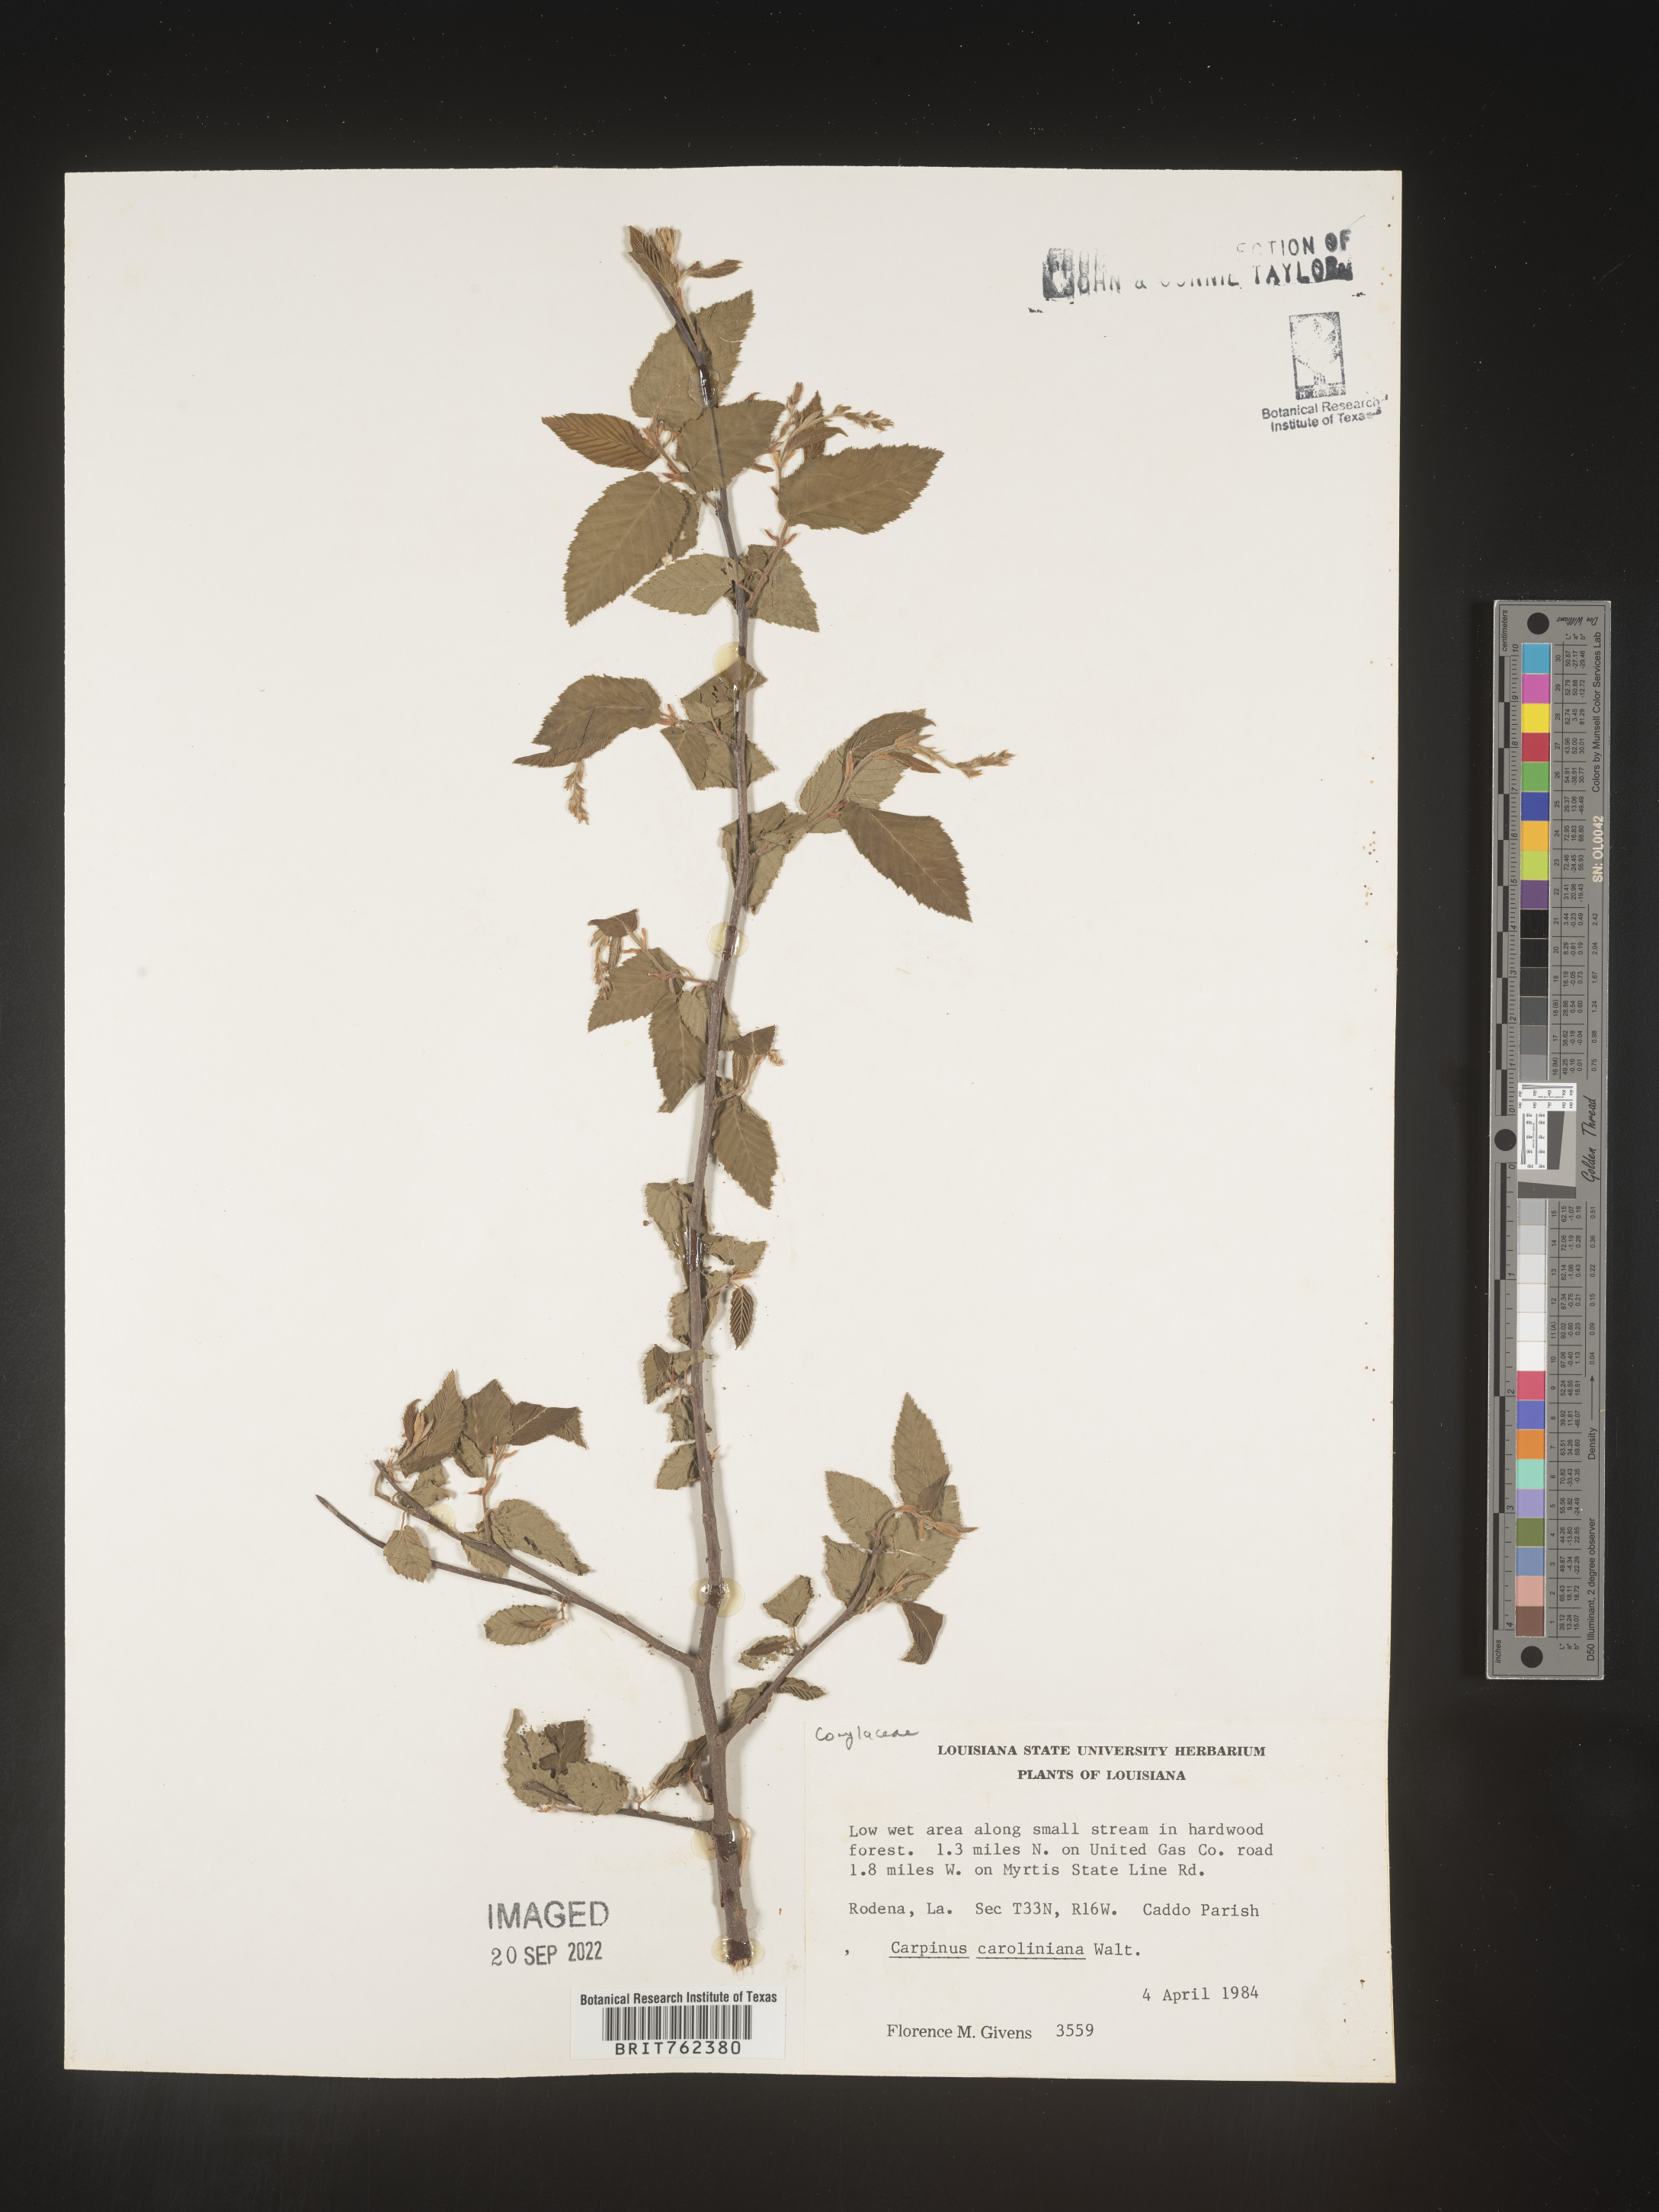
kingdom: Plantae
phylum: Tracheophyta
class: Magnoliopsida
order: Fagales
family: Betulaceae
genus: Carpinus
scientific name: Carpinus caroliniana
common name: American hornbeam
